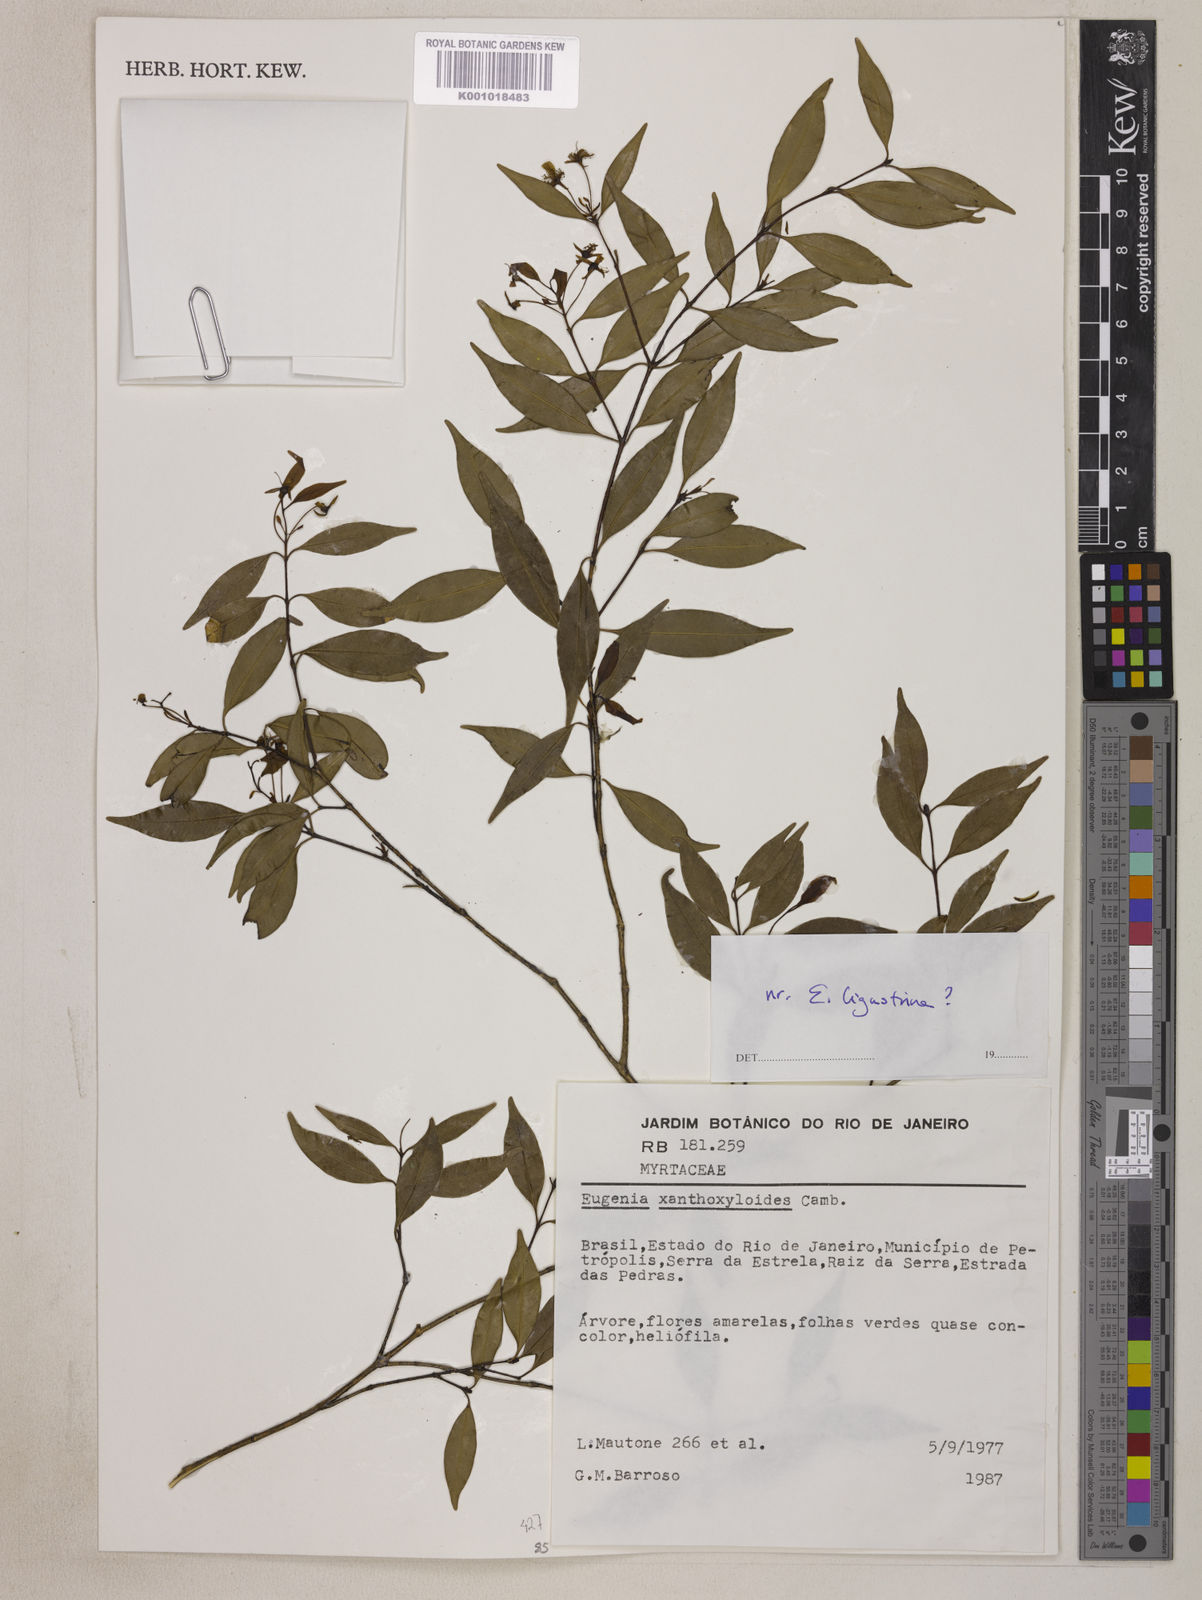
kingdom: Plantae
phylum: Tracheophyta
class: Magnoliopsida
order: Myrtales
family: Myrtaceae
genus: Eugenia
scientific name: Eugenia xanthoxyloides
